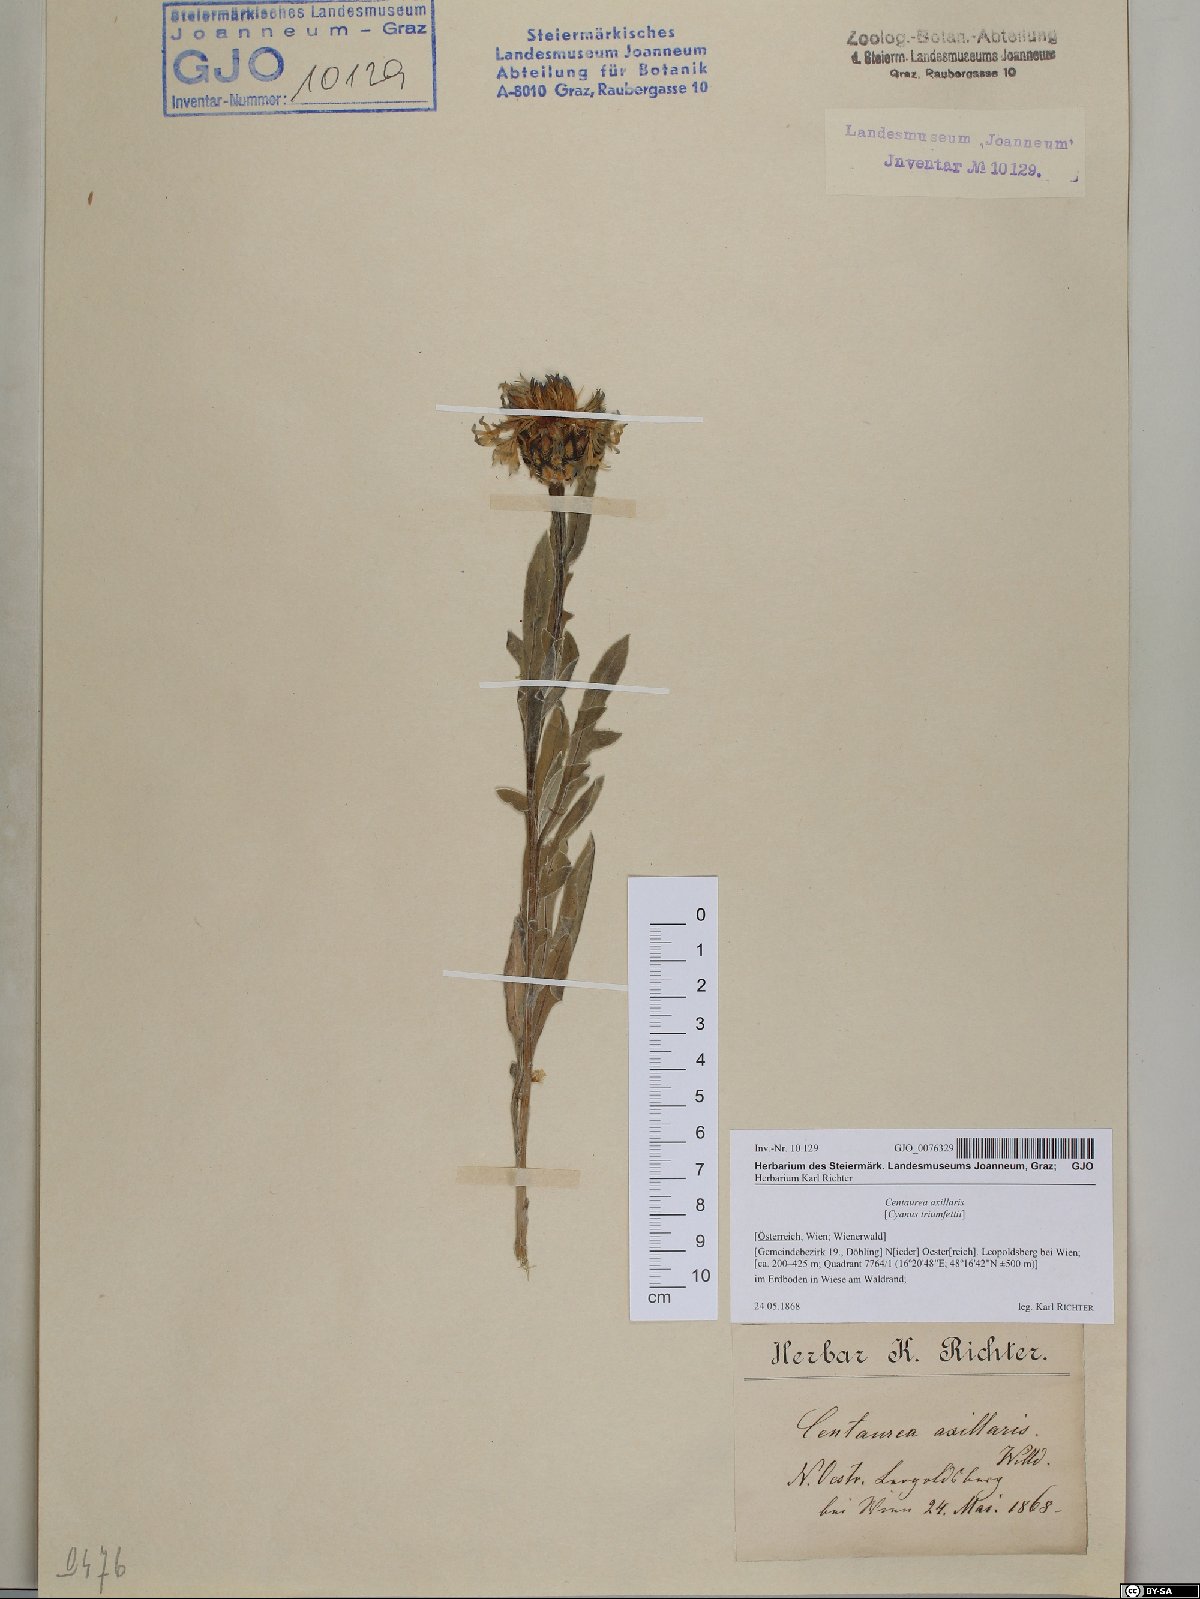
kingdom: Plantae
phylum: Tracheophyta
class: Magnoliopsida
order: Asterales
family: Asteraceae
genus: Centaurea
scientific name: Centaurea triumfettii
